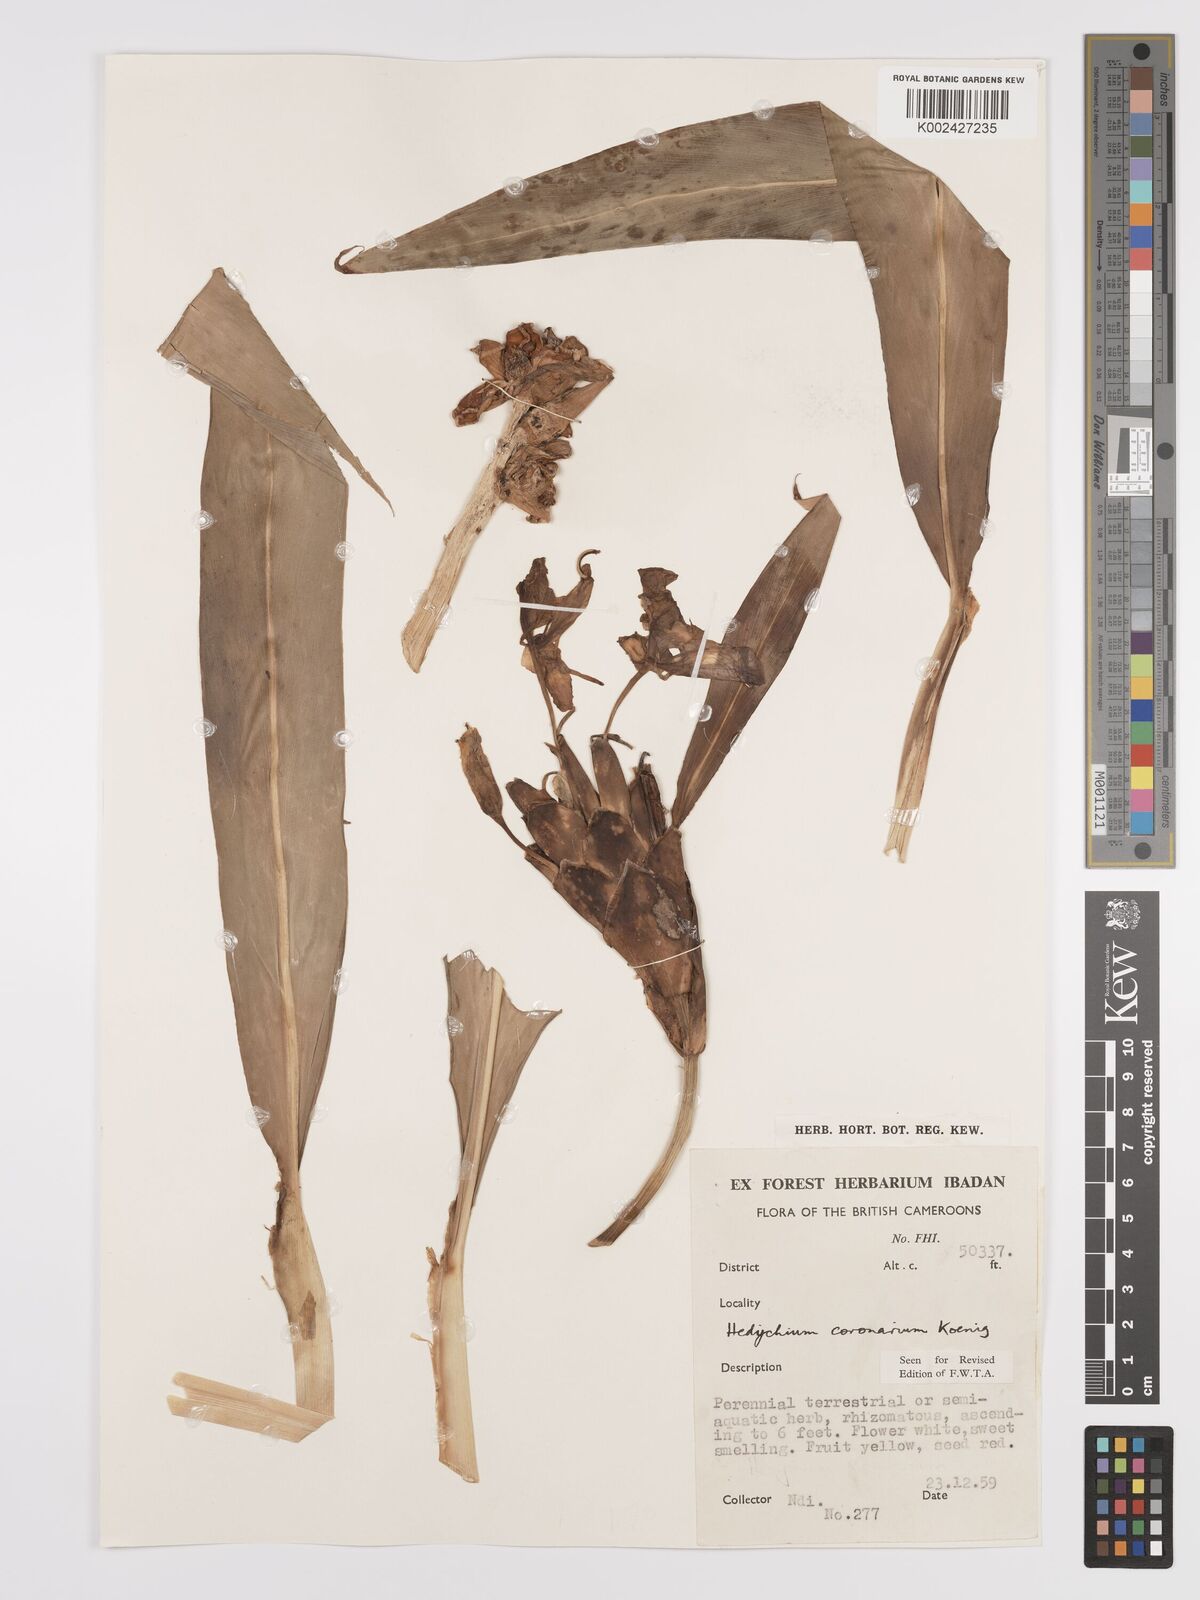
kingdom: Plantae
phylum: Tracheophyta
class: Liliopsida
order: Zingiberales
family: Zingiberaceae
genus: Hedychium
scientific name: Hedychium coronarium
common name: White garland-lily
